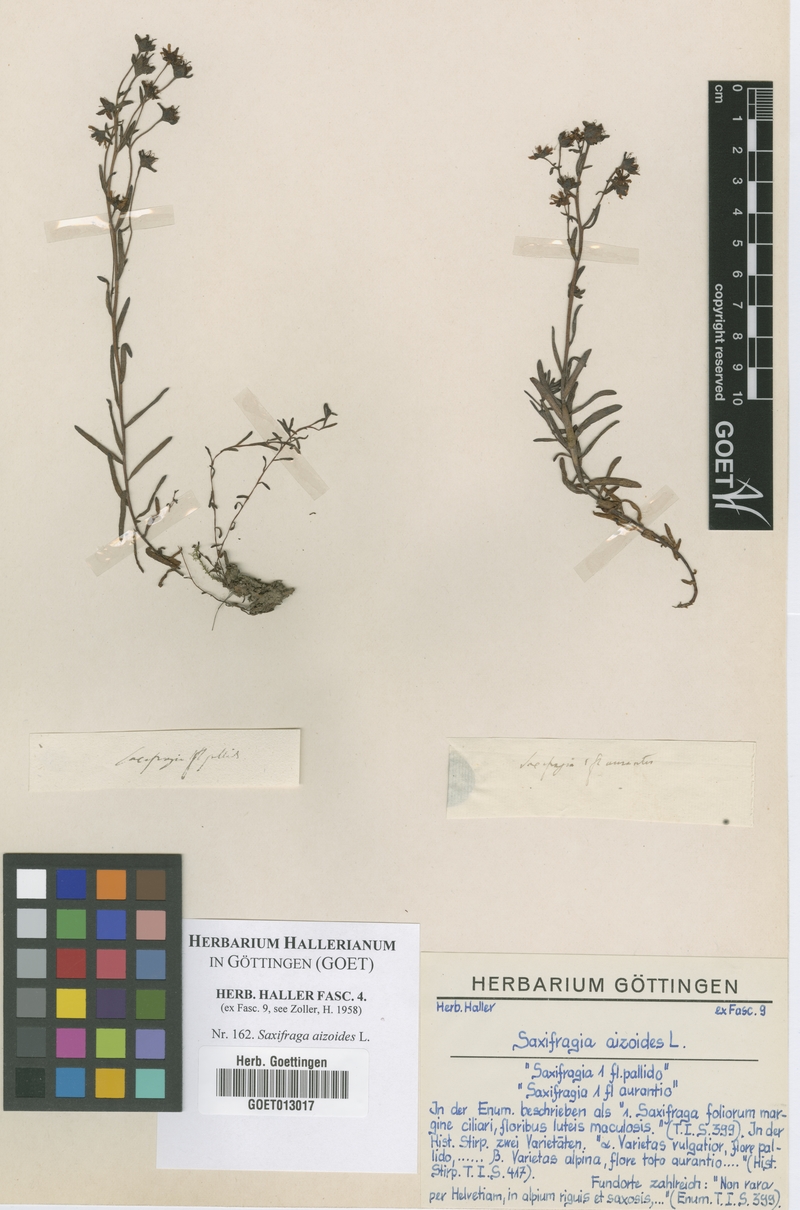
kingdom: Plantae
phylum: Tracheophyta
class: Magnoliopsida
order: Saxifragales
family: Saxifragaceae
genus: Saxifraga
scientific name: Saxifraga aizoides
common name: Yellow mountain saxifrage
